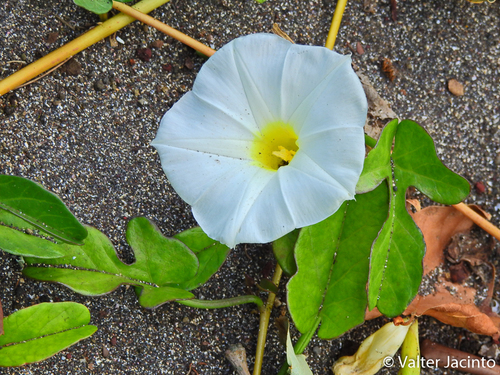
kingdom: Plantae
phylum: Tracheophyta
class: Magnoliopsida
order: Solanales
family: Convolvulaceae
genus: Ipomoea
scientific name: Ipomoea imperati
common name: Fiddle-leaf morning-glory
